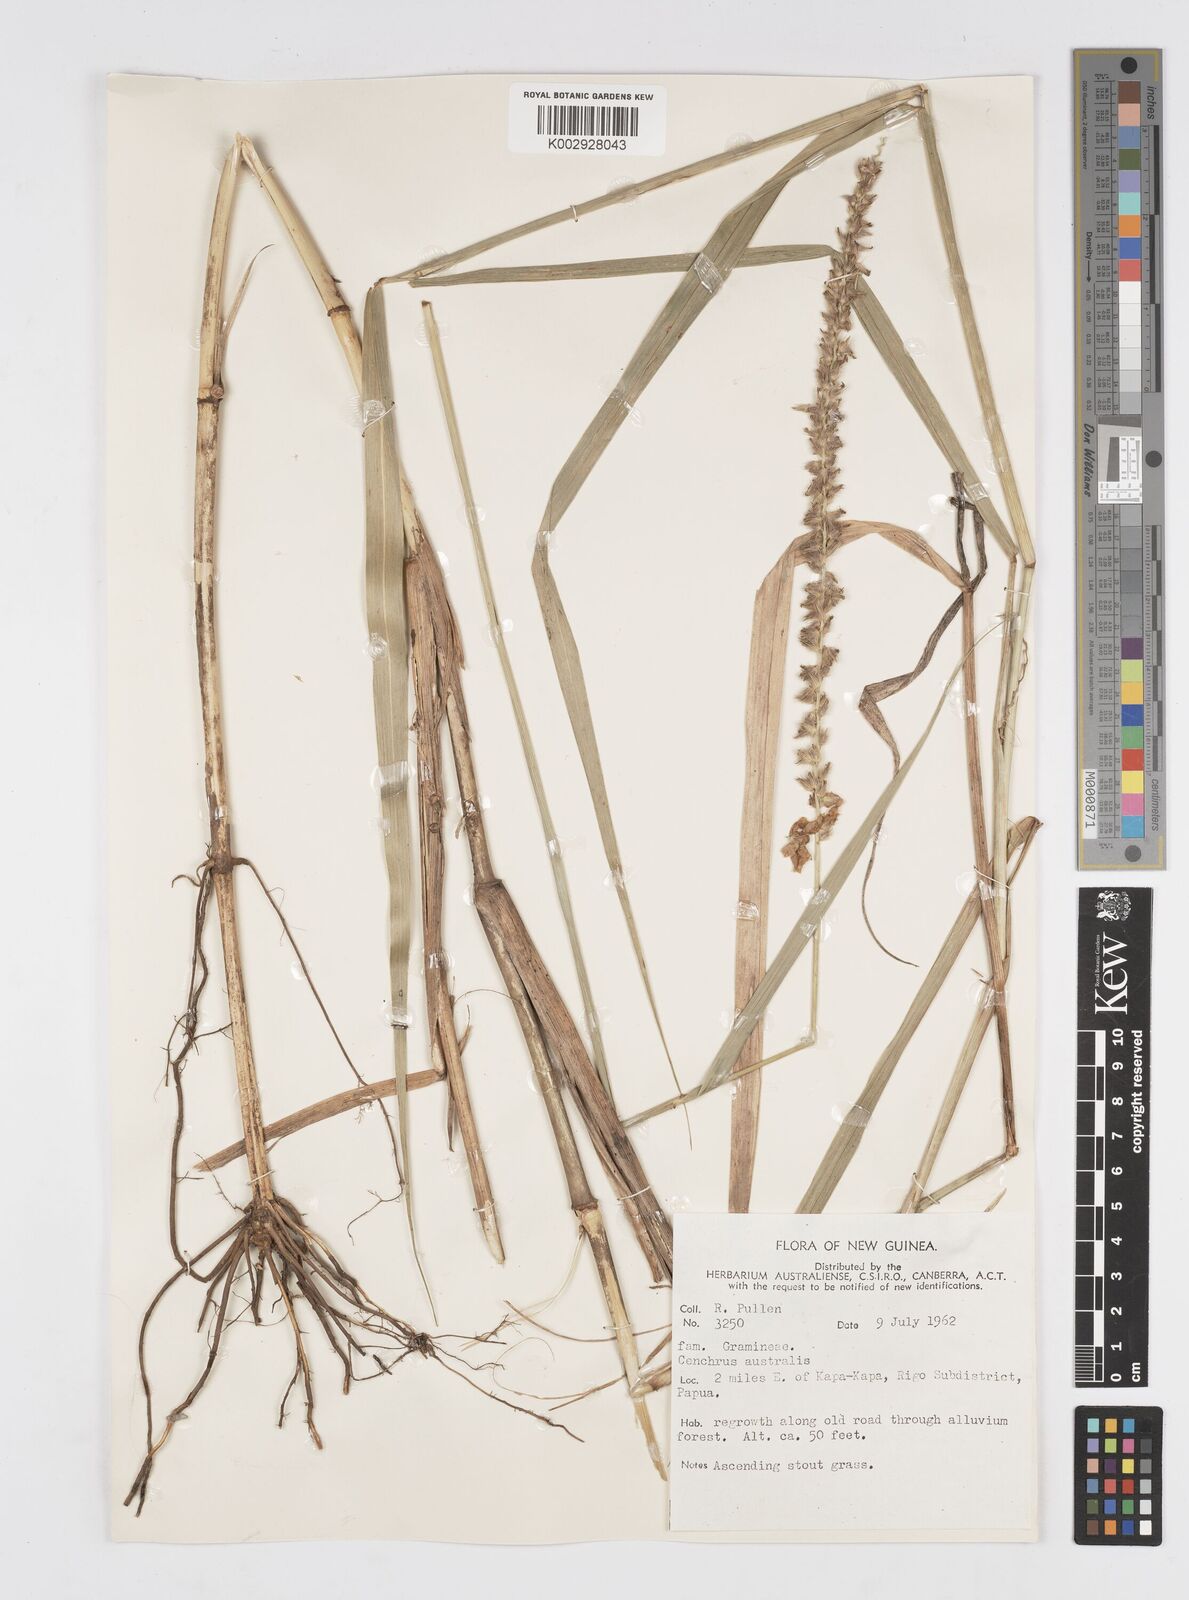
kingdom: Plantae
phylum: Tracheophyta
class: Liliopsida
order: Poales
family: Poaceae
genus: Cenchrus
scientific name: Cenchrus caliculatus
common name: Large bur grass
